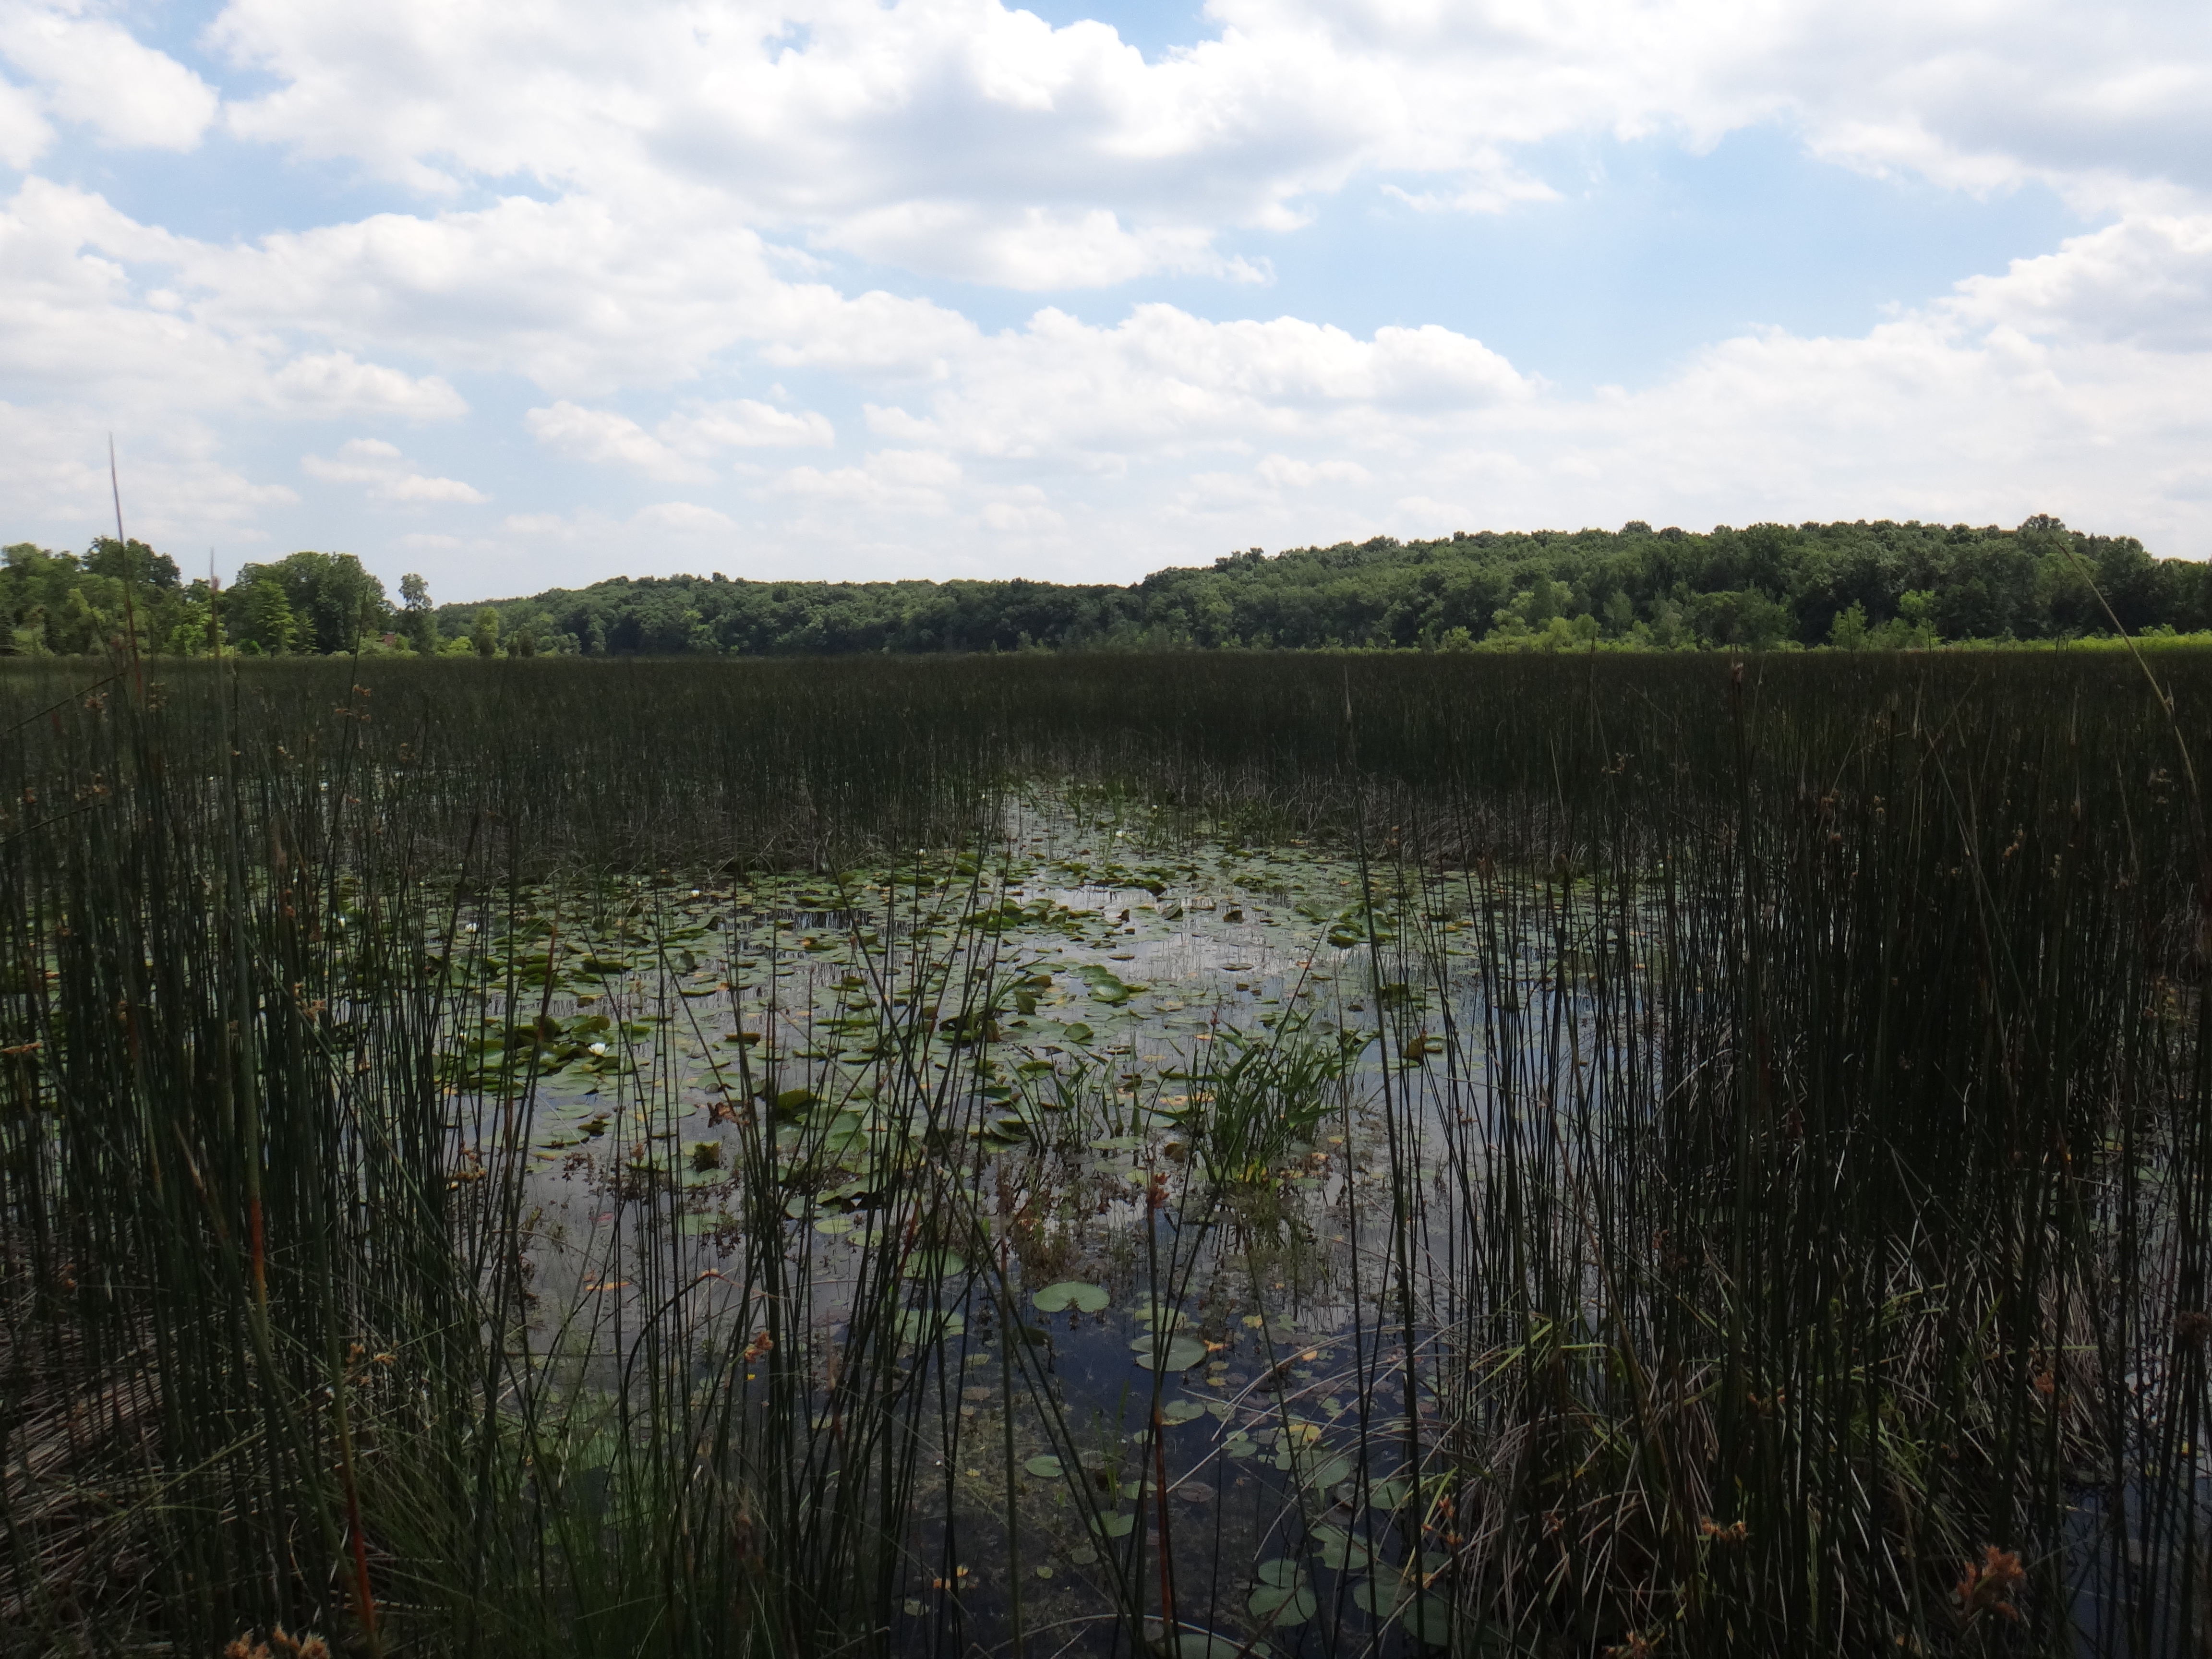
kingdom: Plantae
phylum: Tracheophyta
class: Magnoliopsida
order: Asterales
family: Asteraceae
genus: Bidens
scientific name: Bidens trichosperma
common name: Crowned beggarticks
